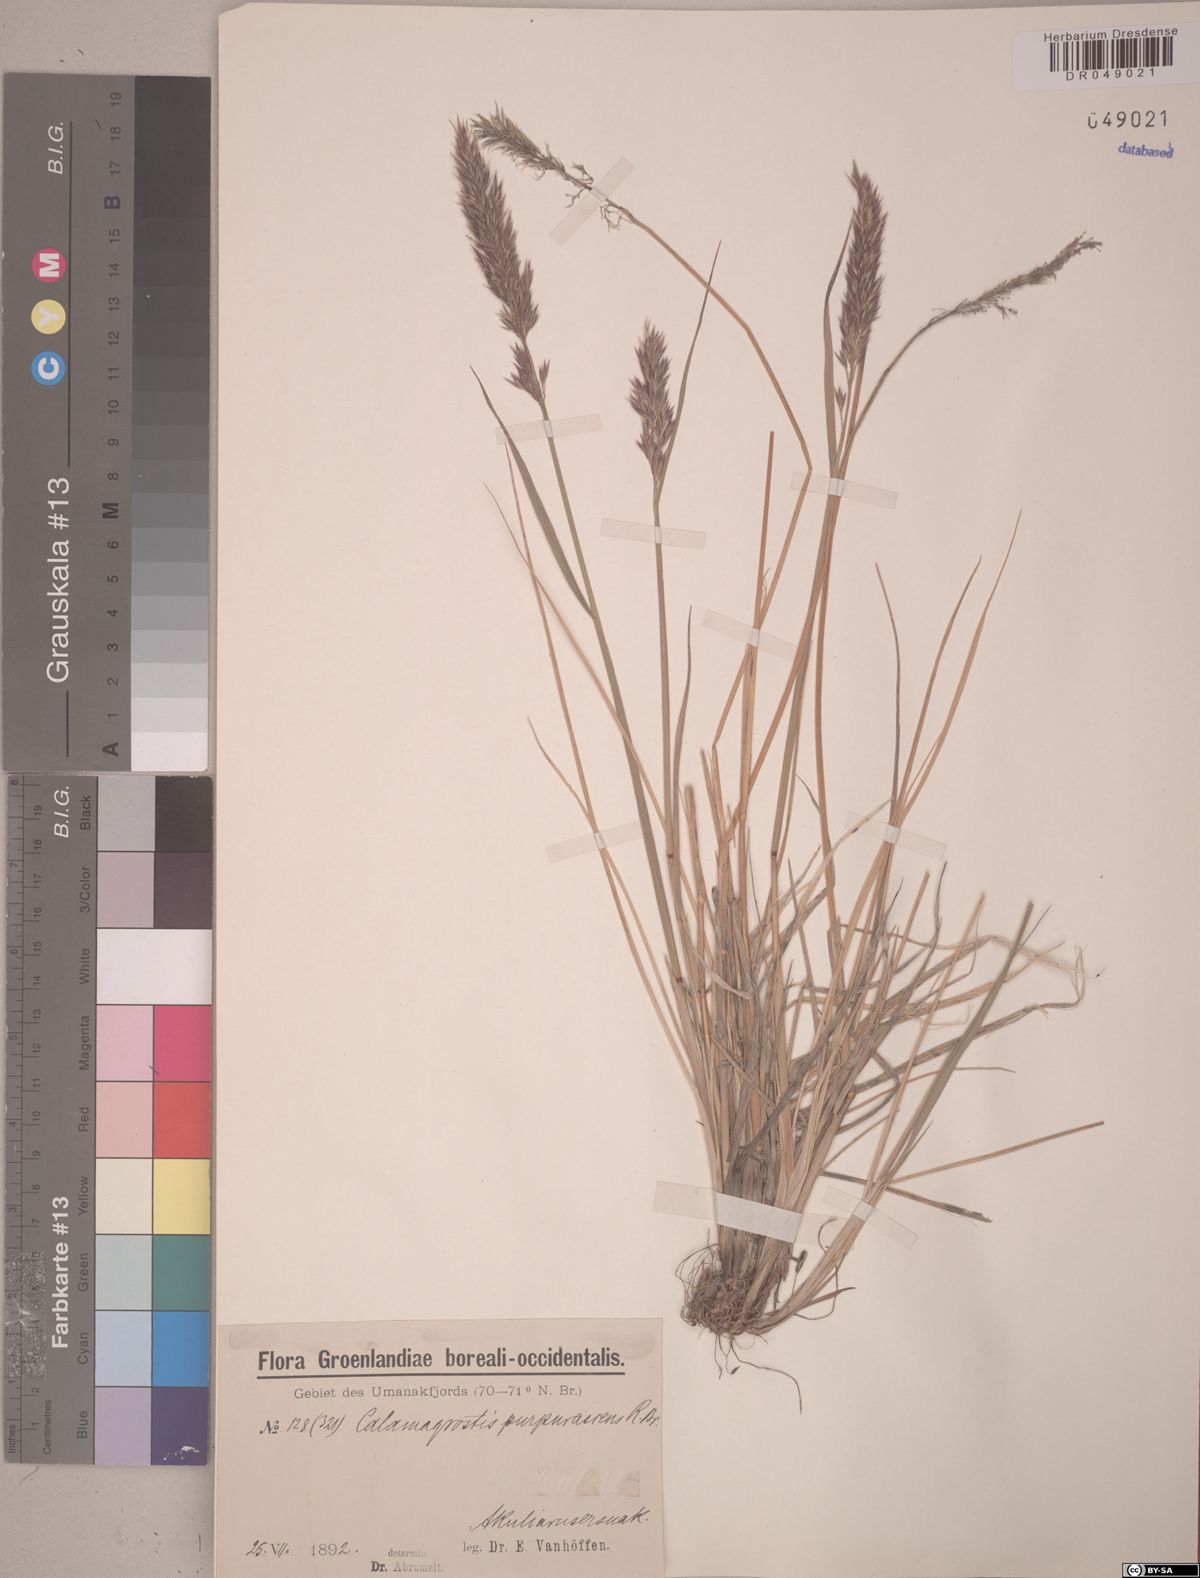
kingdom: Plantae
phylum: Tracheophyta
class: Liliopsida
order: Poales
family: Poaceae
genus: Calamagrostis
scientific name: Calamagrostis purpurascens
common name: Purple reedgrass
